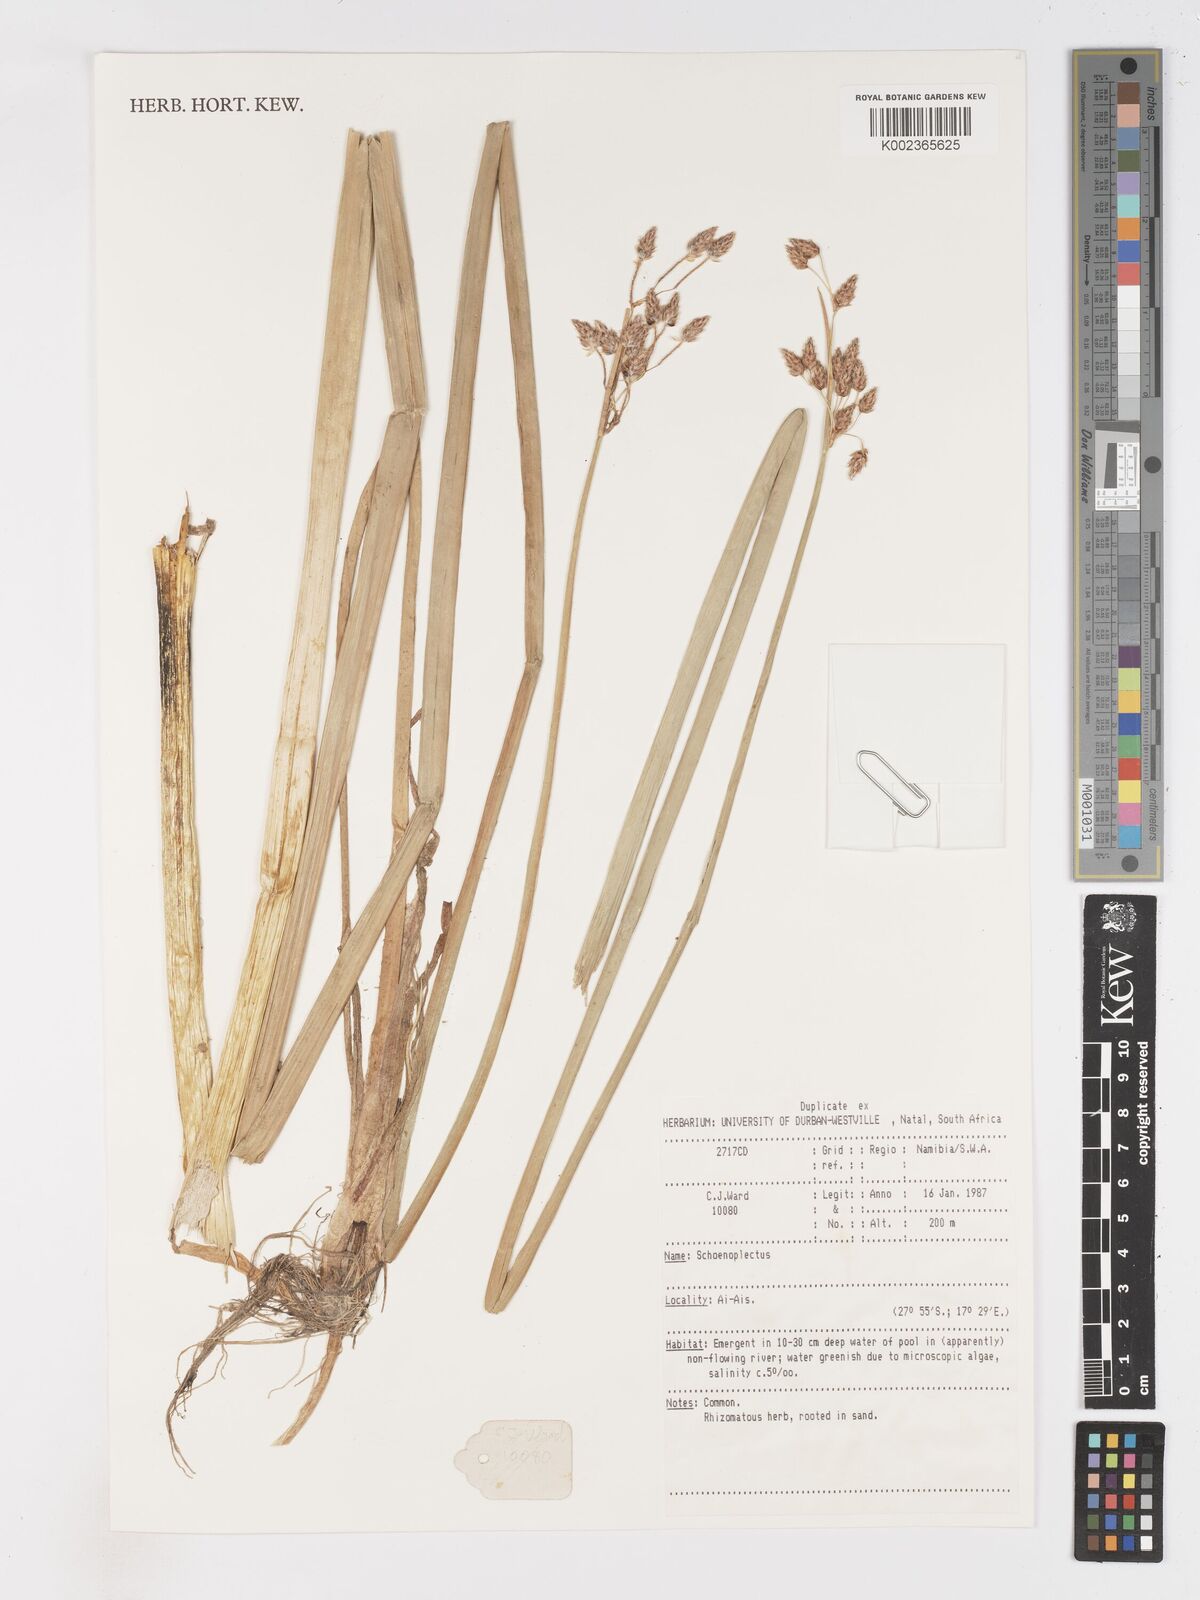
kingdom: Plantae
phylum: Tracheophyta
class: Liliopsida
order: Poales
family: Cyperaceae
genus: Schoenoplectus
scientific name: Schoenoplectus
